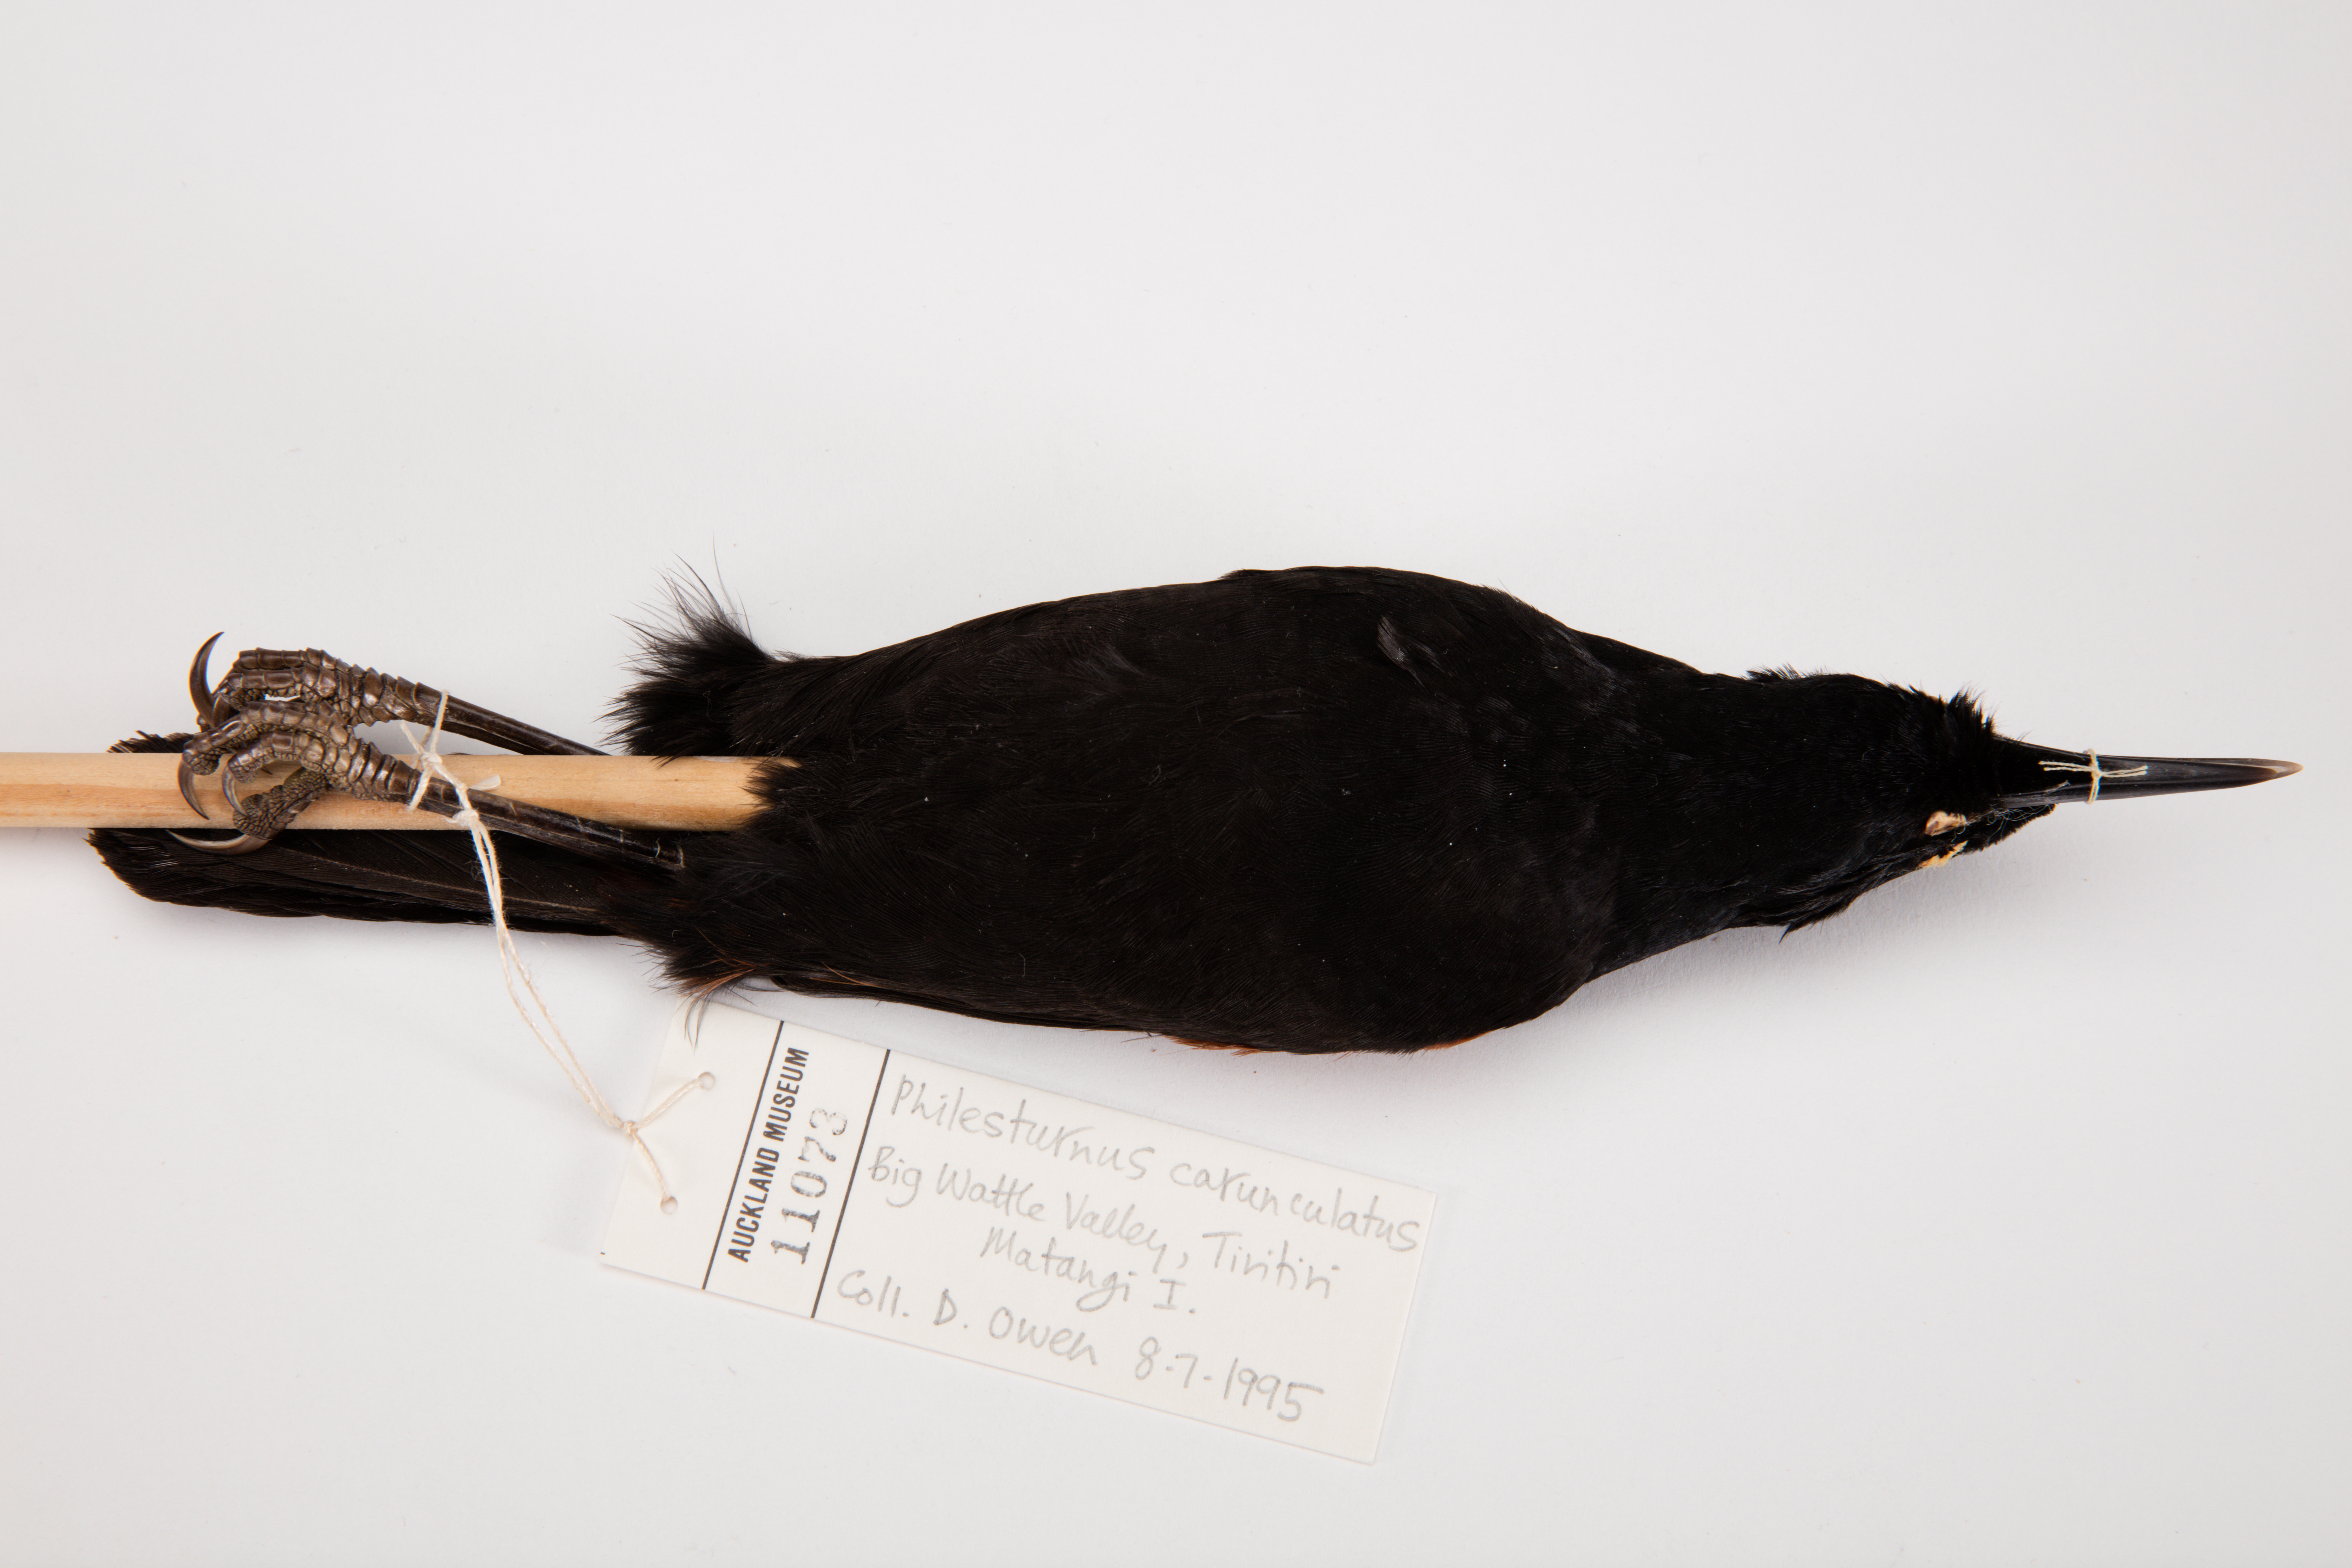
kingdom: Animalia
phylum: Chordata
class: Aves
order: Passeriformes
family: Callaeatidae
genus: Philesturnus
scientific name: Philesturnus carunculatus
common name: South island saddleback
